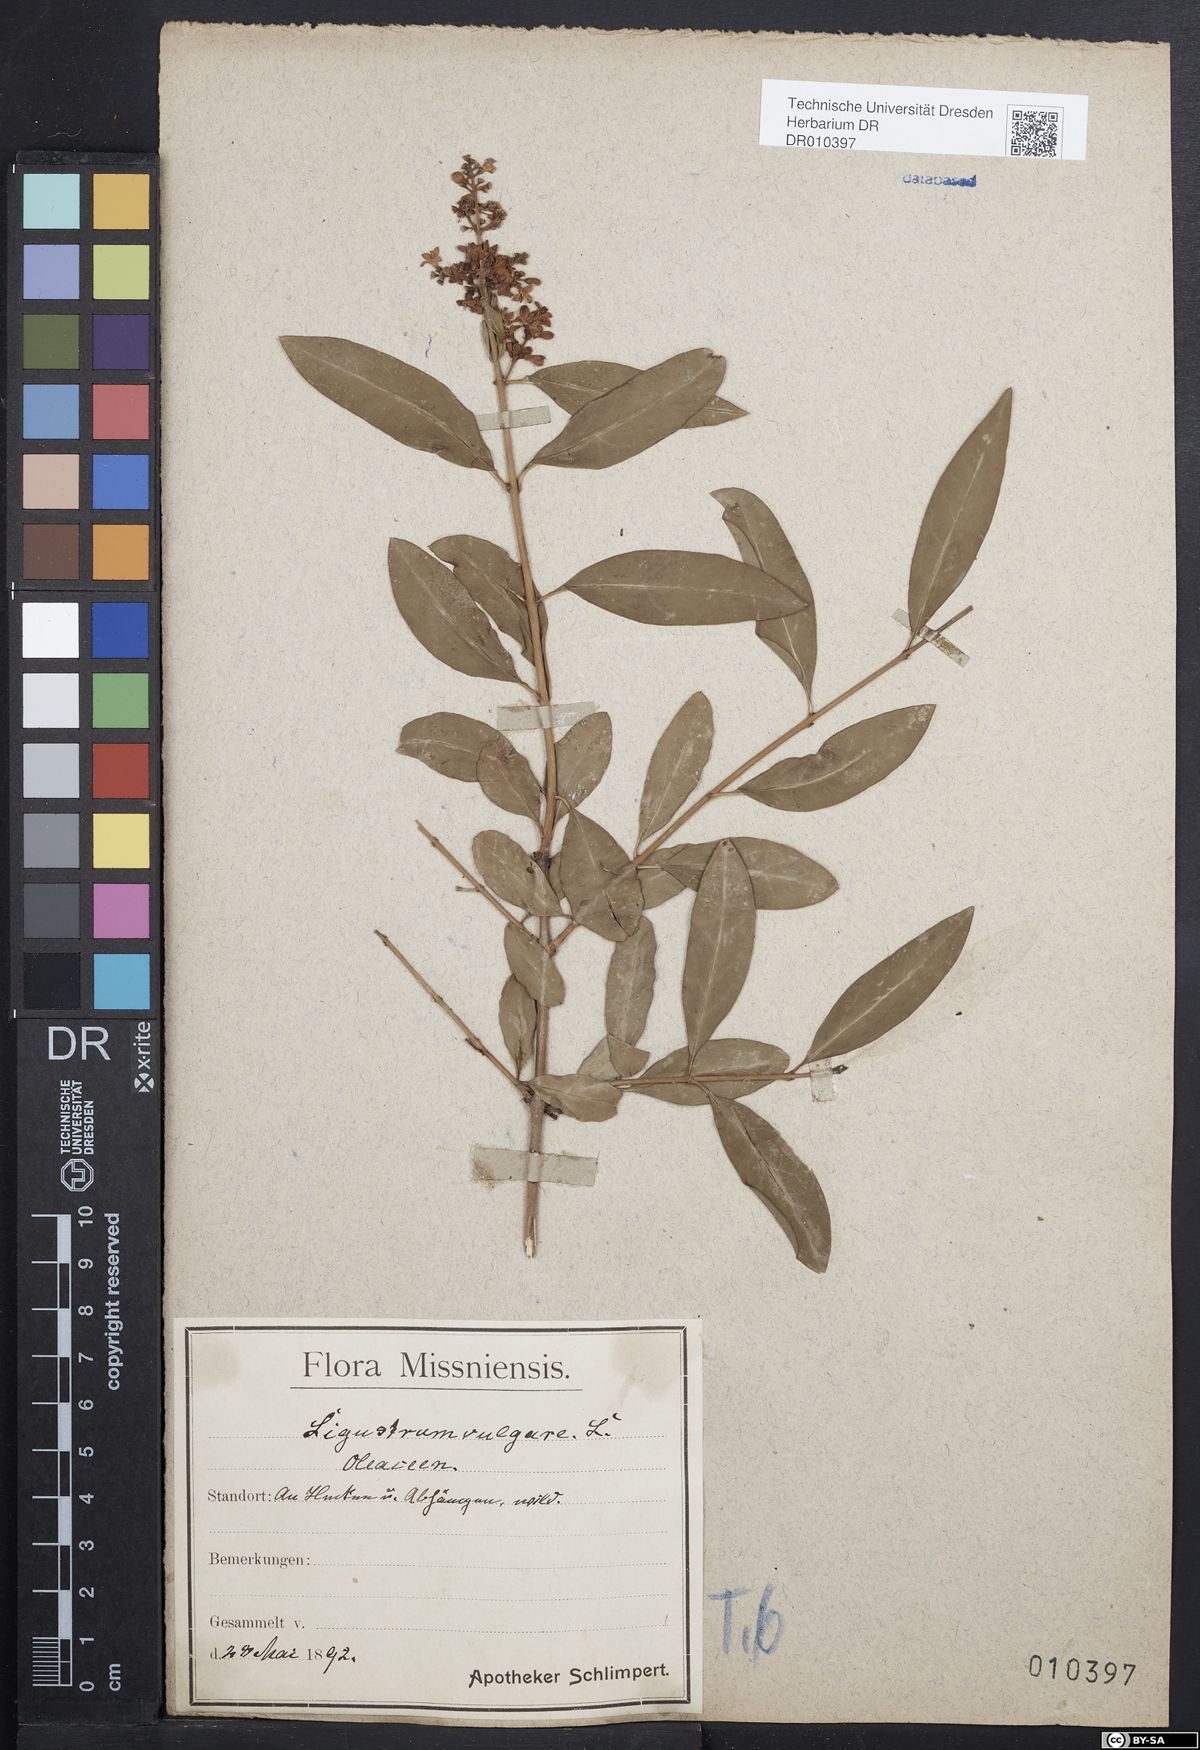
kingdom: Plantae
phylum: Tracheophyta
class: Magnoliopsida
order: Lamiales
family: Oleaceae
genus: Ligustrum
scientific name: Ligustrum vulgare
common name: Wild privet
